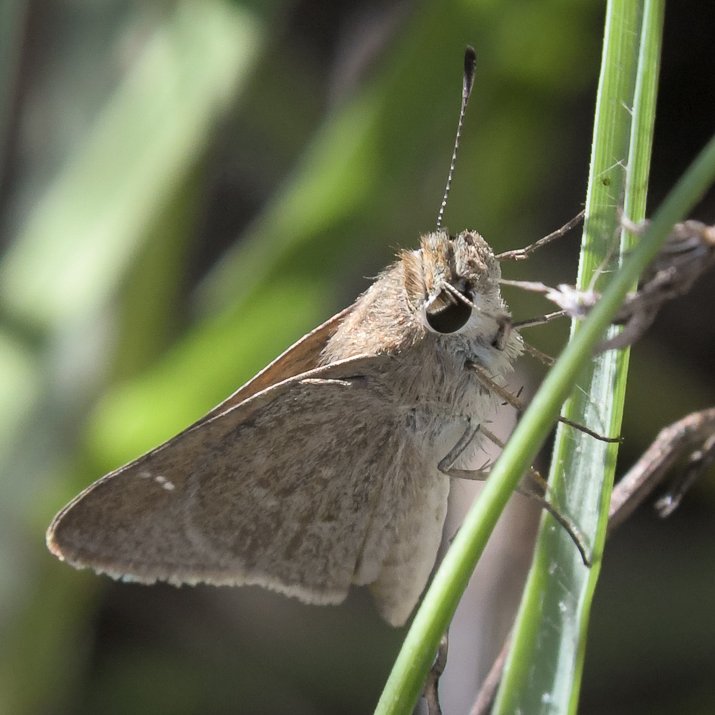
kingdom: Animalia
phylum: Arthropoda
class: Insecta
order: Lepidoptera
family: Hesperiidae
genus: Lerodea
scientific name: Lerodea eufala
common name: Eufala Skipper
